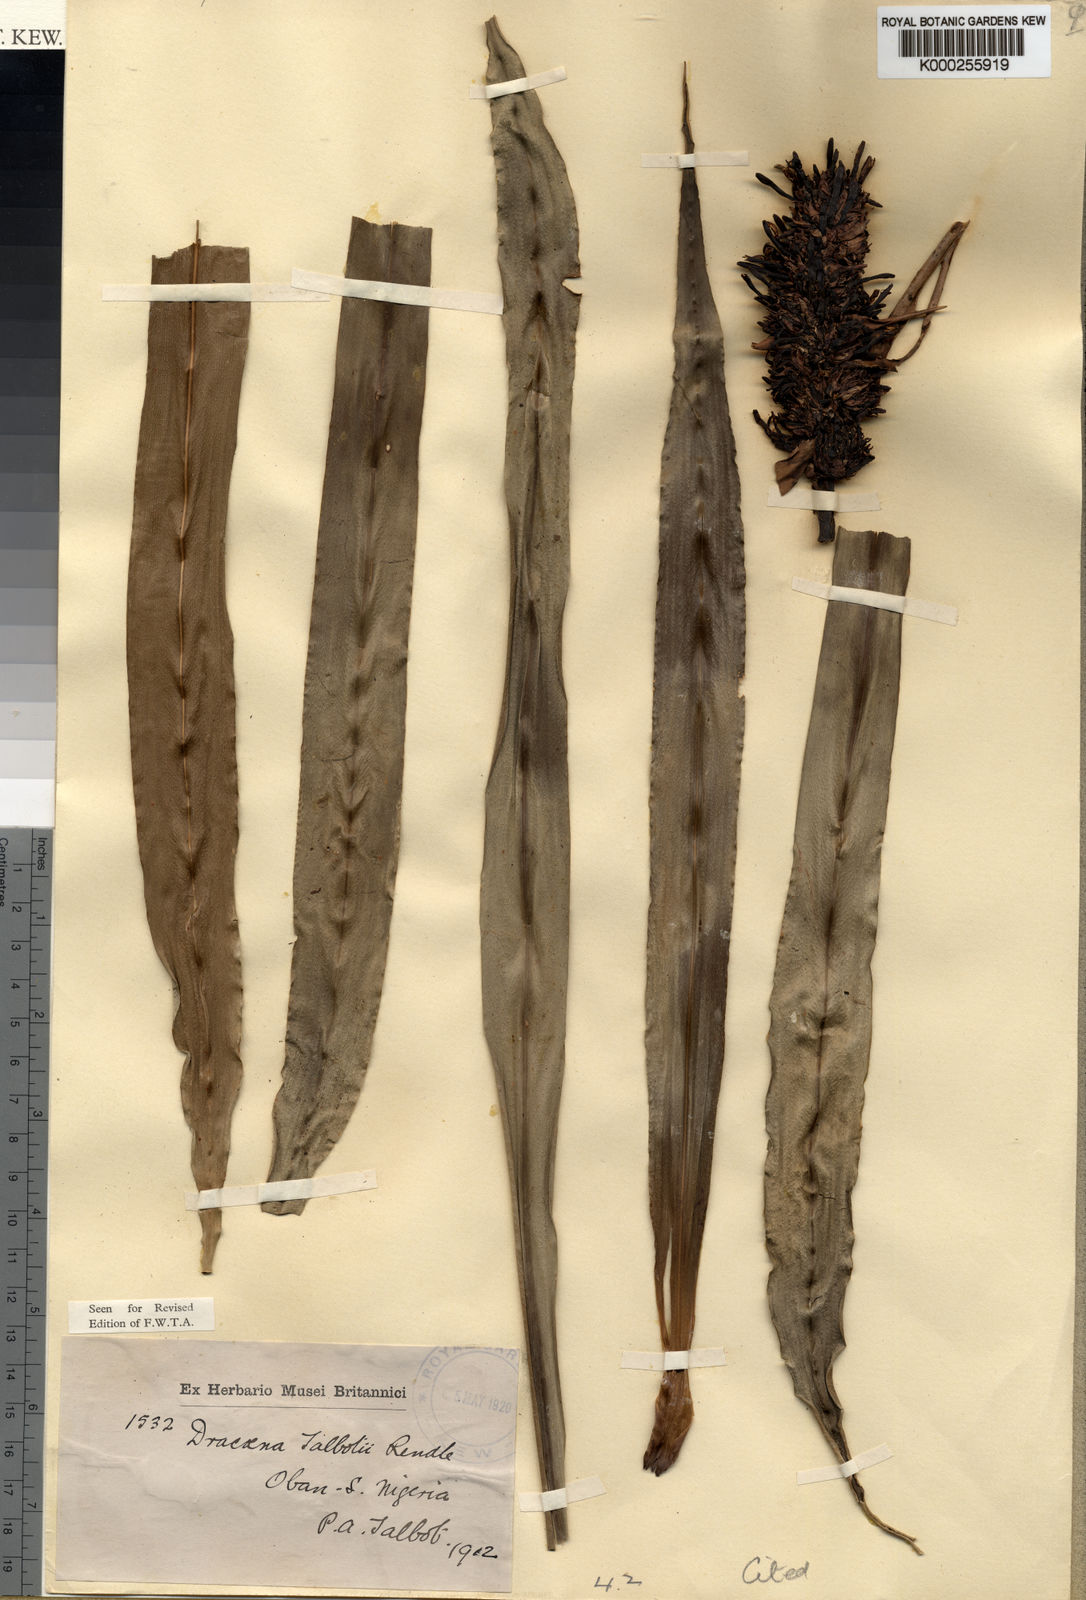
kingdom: Plantae
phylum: Tracheophyta
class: Liliopsida
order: Asparagales
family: Asparagaceae
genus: Dracaena
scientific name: Dracaena bicolor
